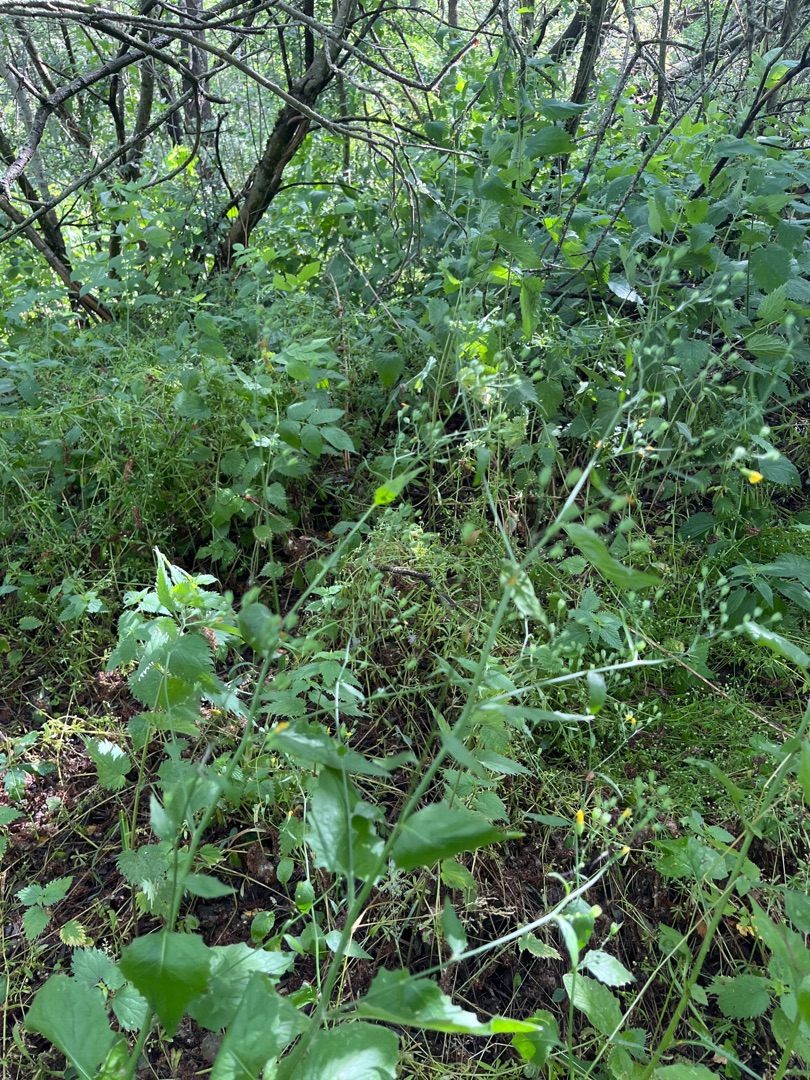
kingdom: Plantae
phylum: Tracheophyta
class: Magnoliopsida
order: Asterales
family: Asteraceae
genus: Lapsana
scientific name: Lapsana communis
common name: Haremad
